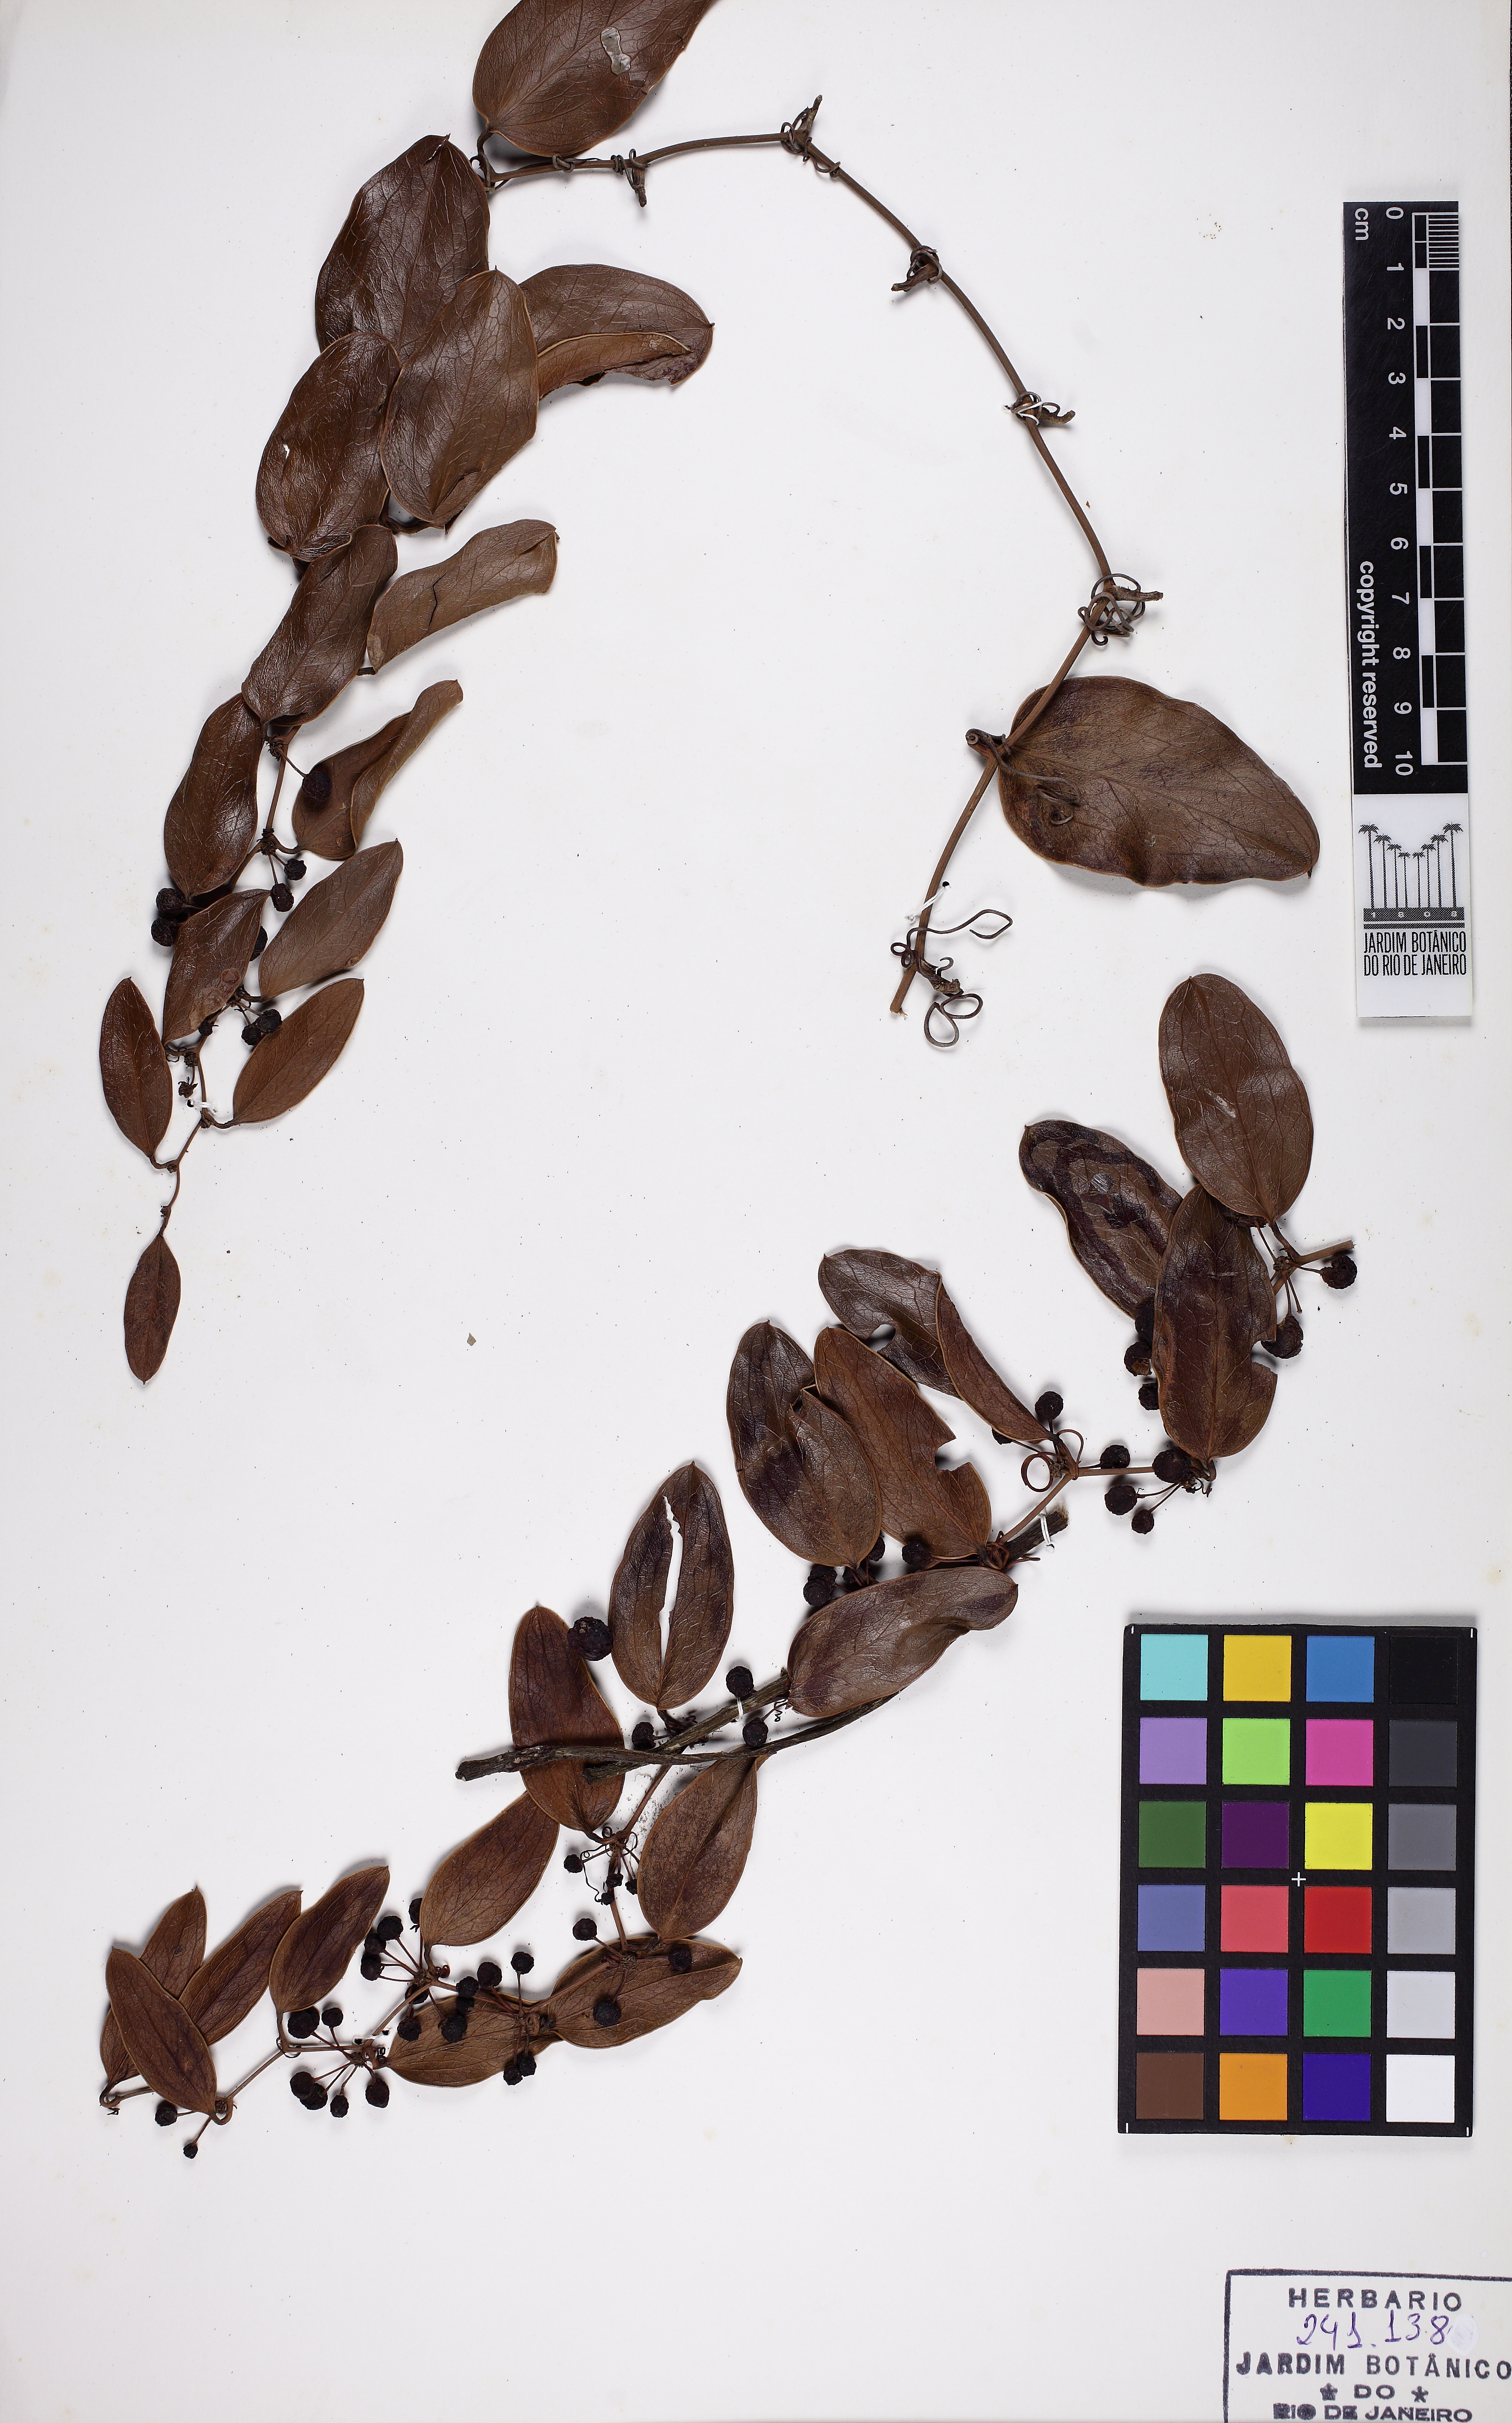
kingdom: Plantae
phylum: Tracheophyta
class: Liliopsida
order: Liliales
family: Smilacaceae
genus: Smilax
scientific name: Smilax rufescens
